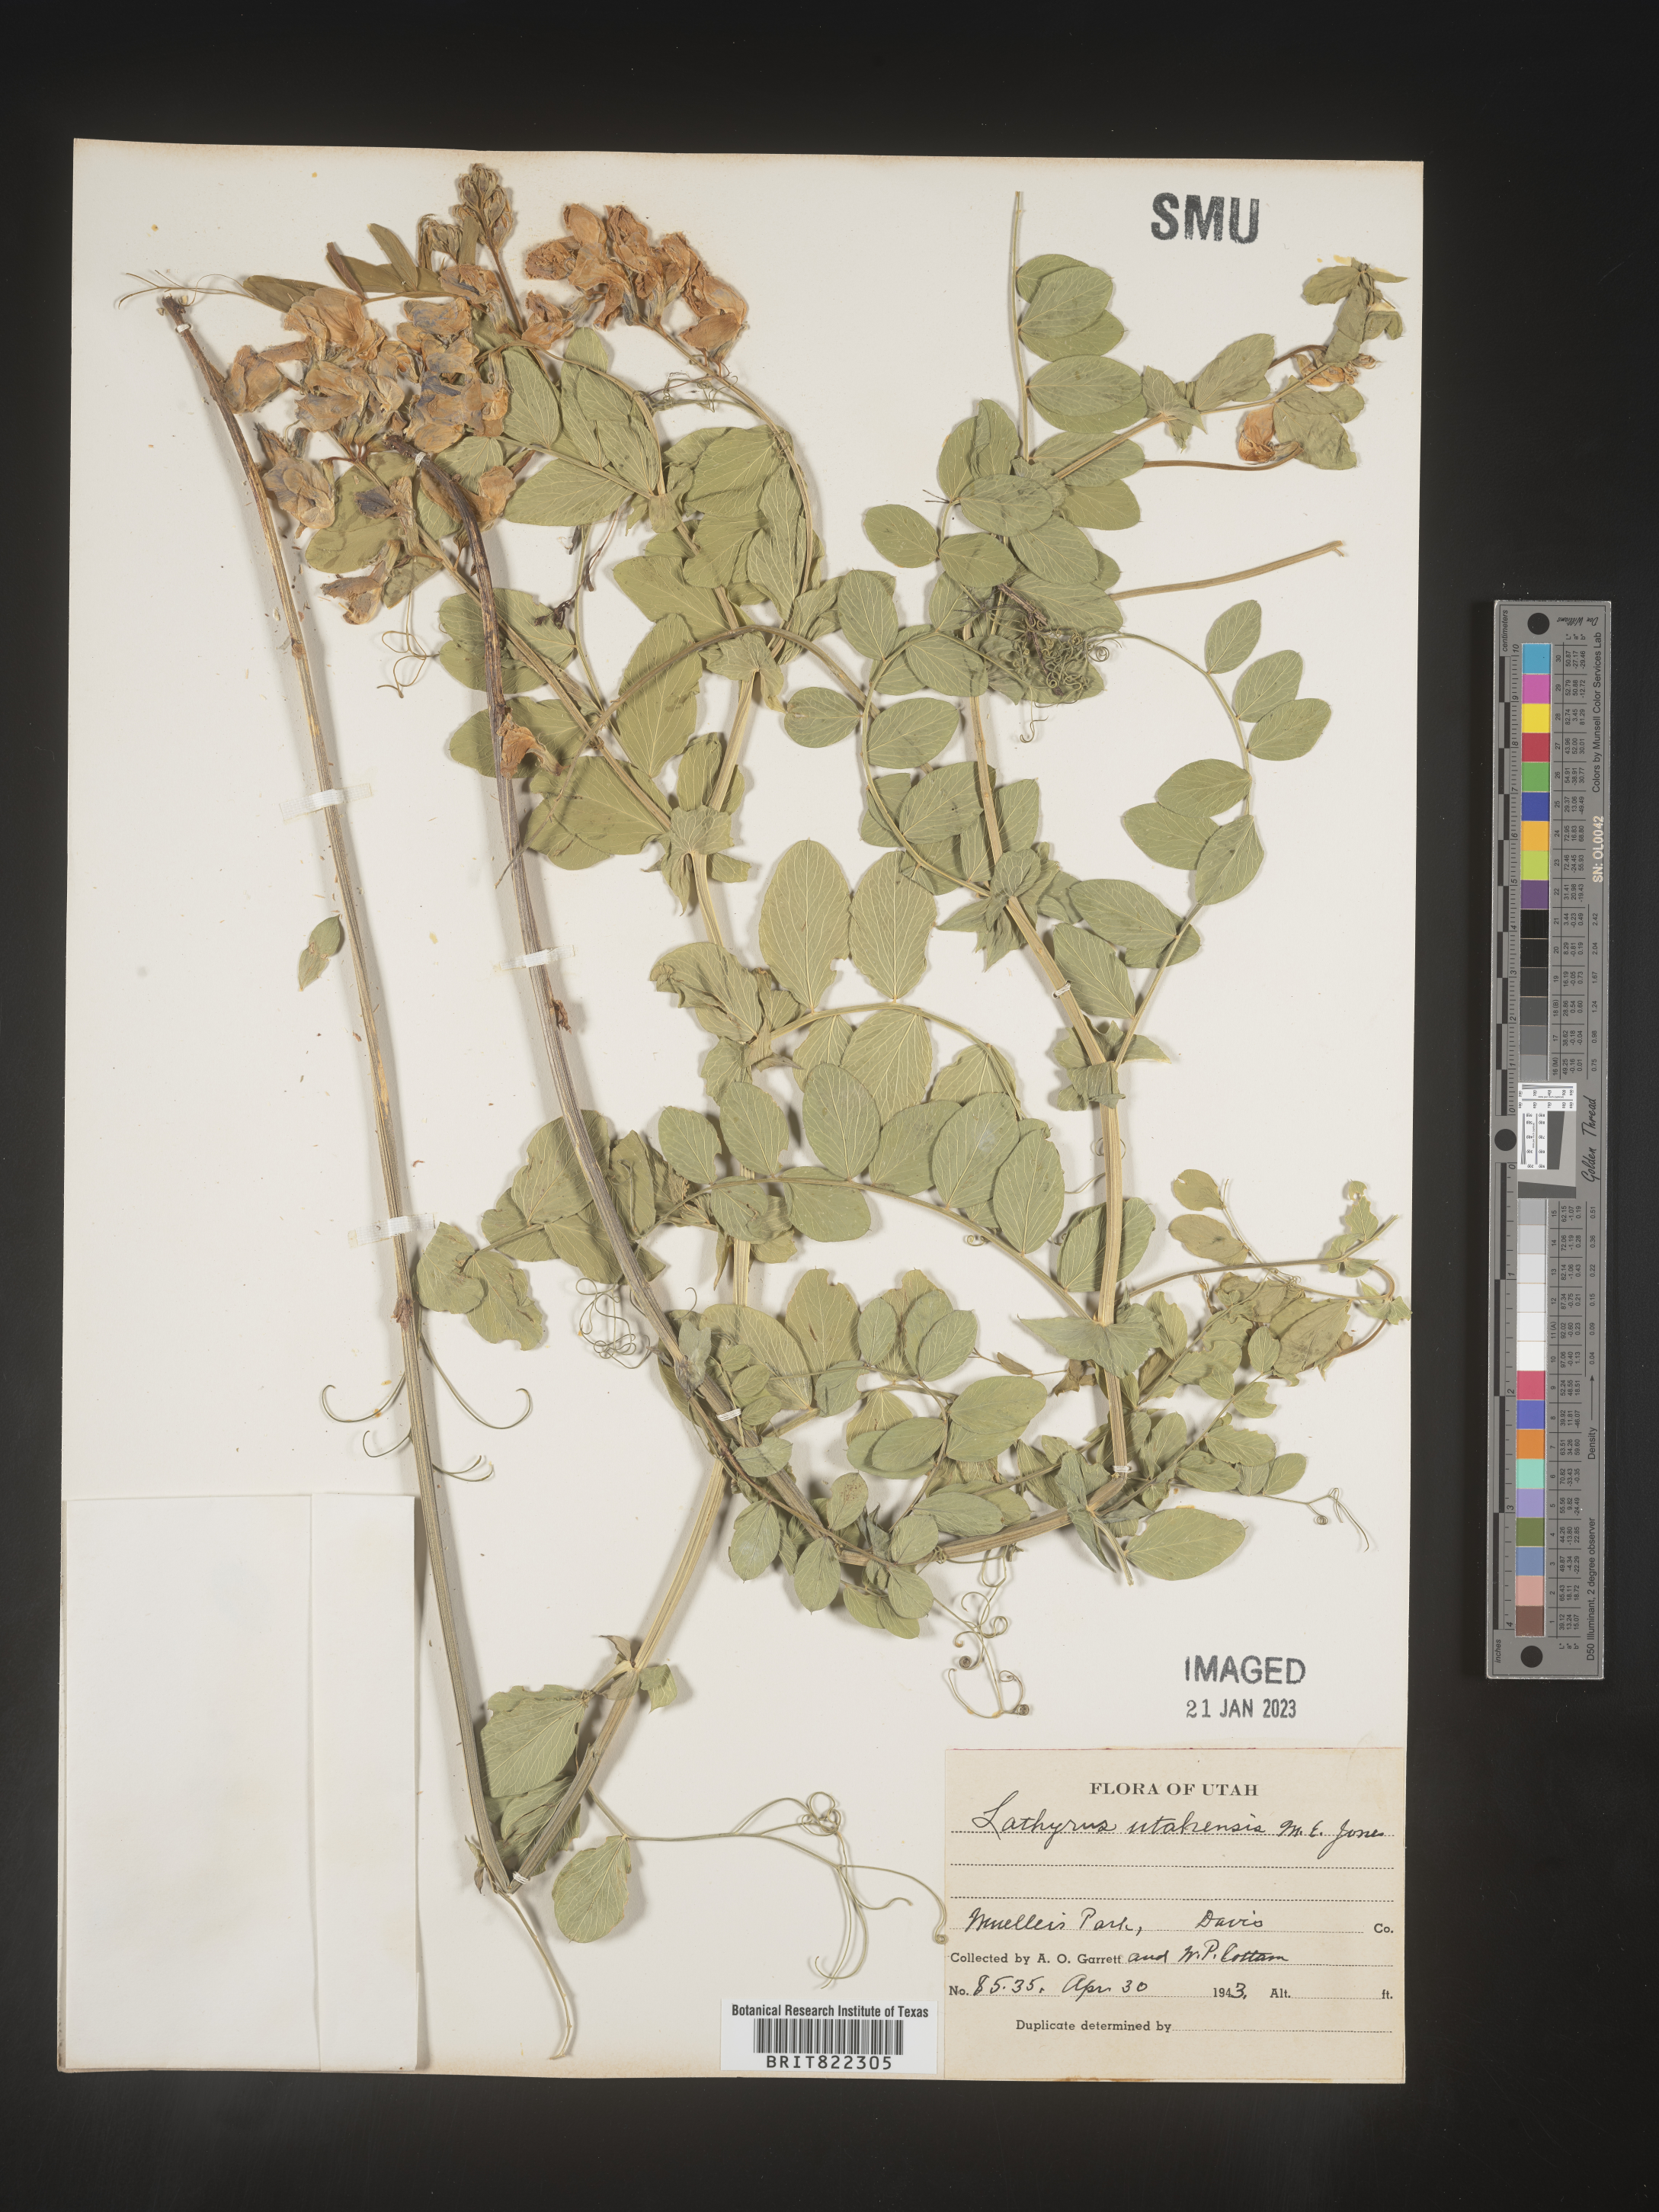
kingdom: Plantae
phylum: Tracheophyta
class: Magnoliopsida
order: Fabales
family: Fabaceae
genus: Lathyrus
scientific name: Lathyrus
